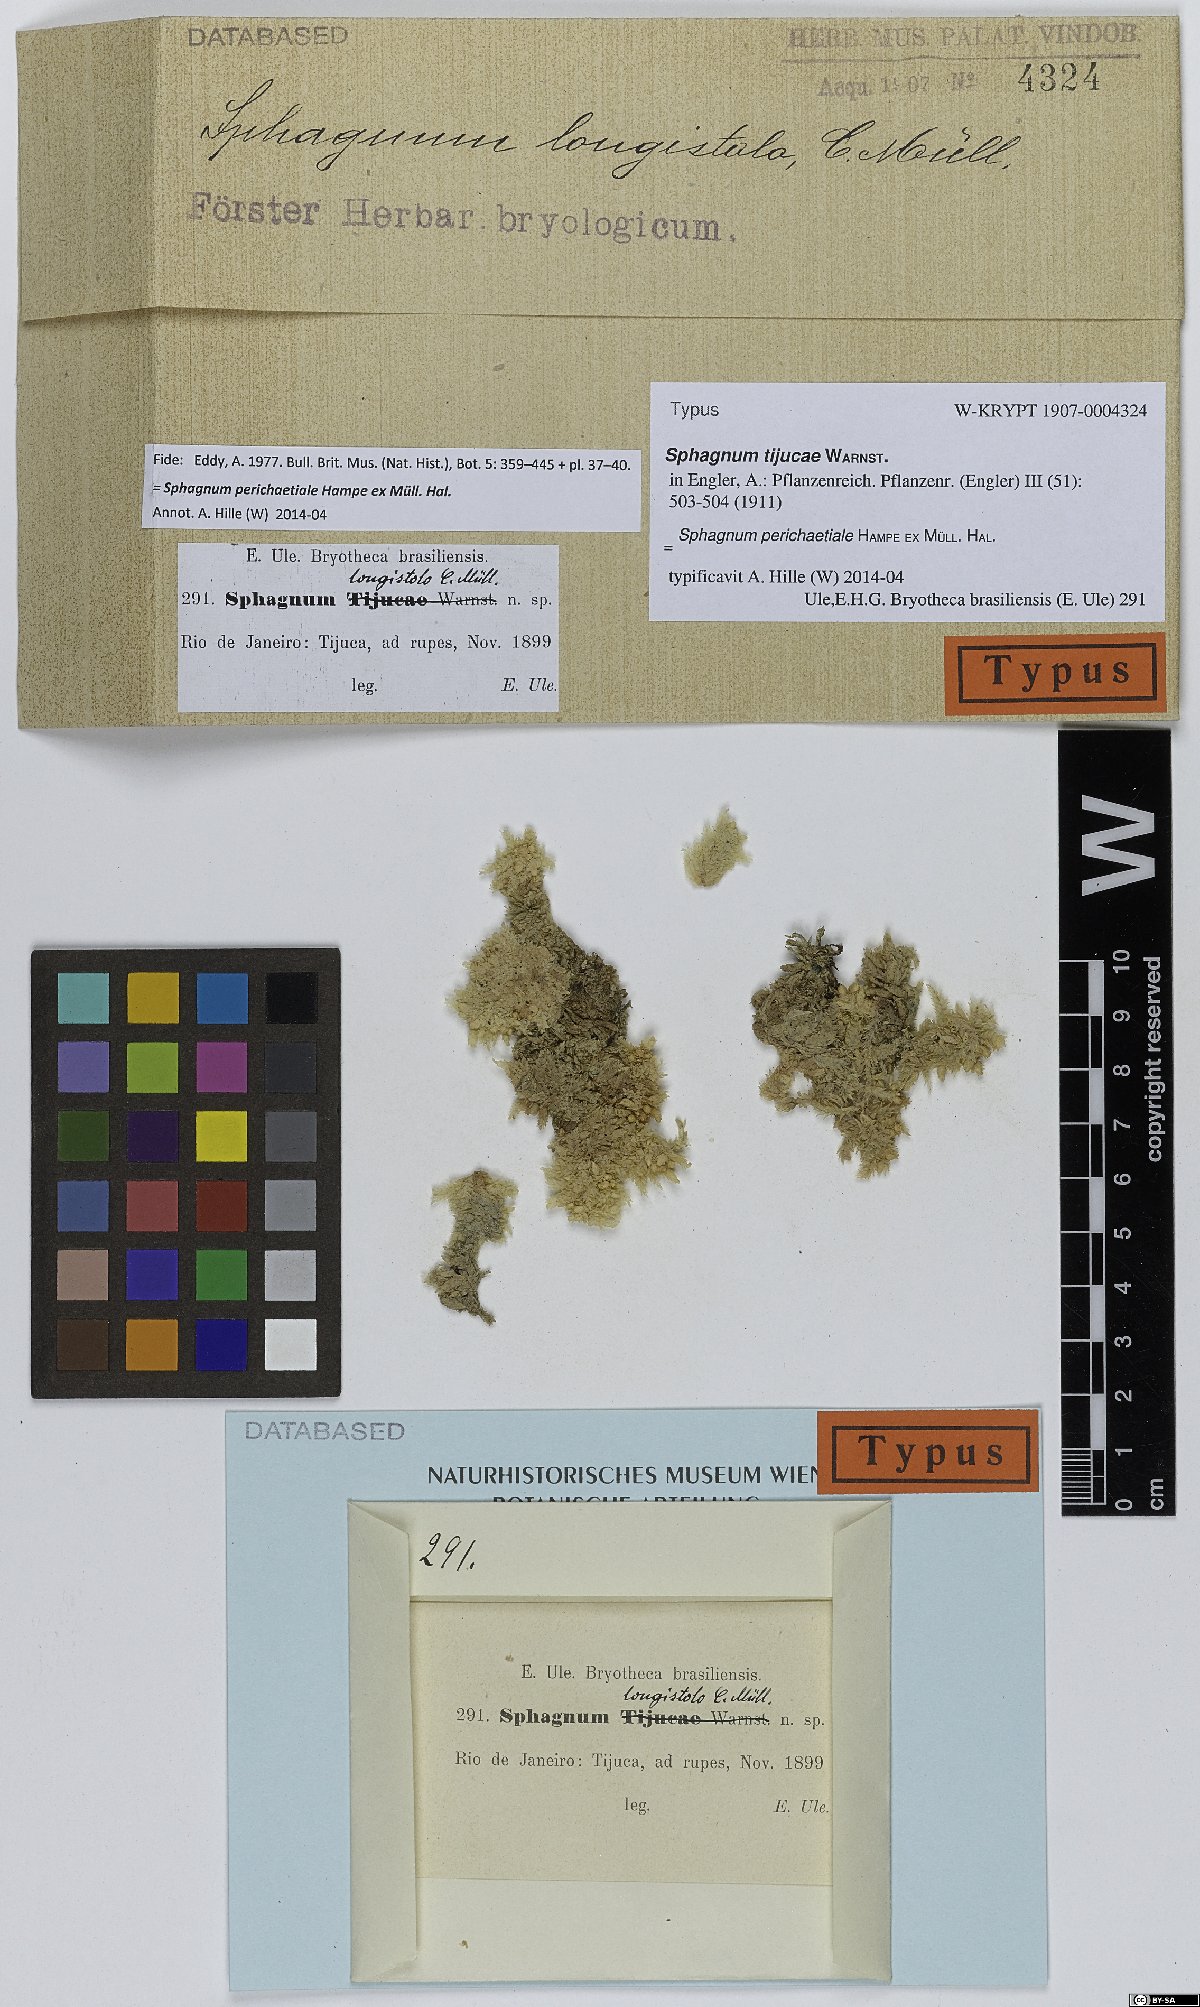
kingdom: Plantae
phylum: Bryophyta
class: Sphagnopsida
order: Sphagnales
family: Sphagnaceae
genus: Sphagnum
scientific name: Sphagnum perichaetiale
